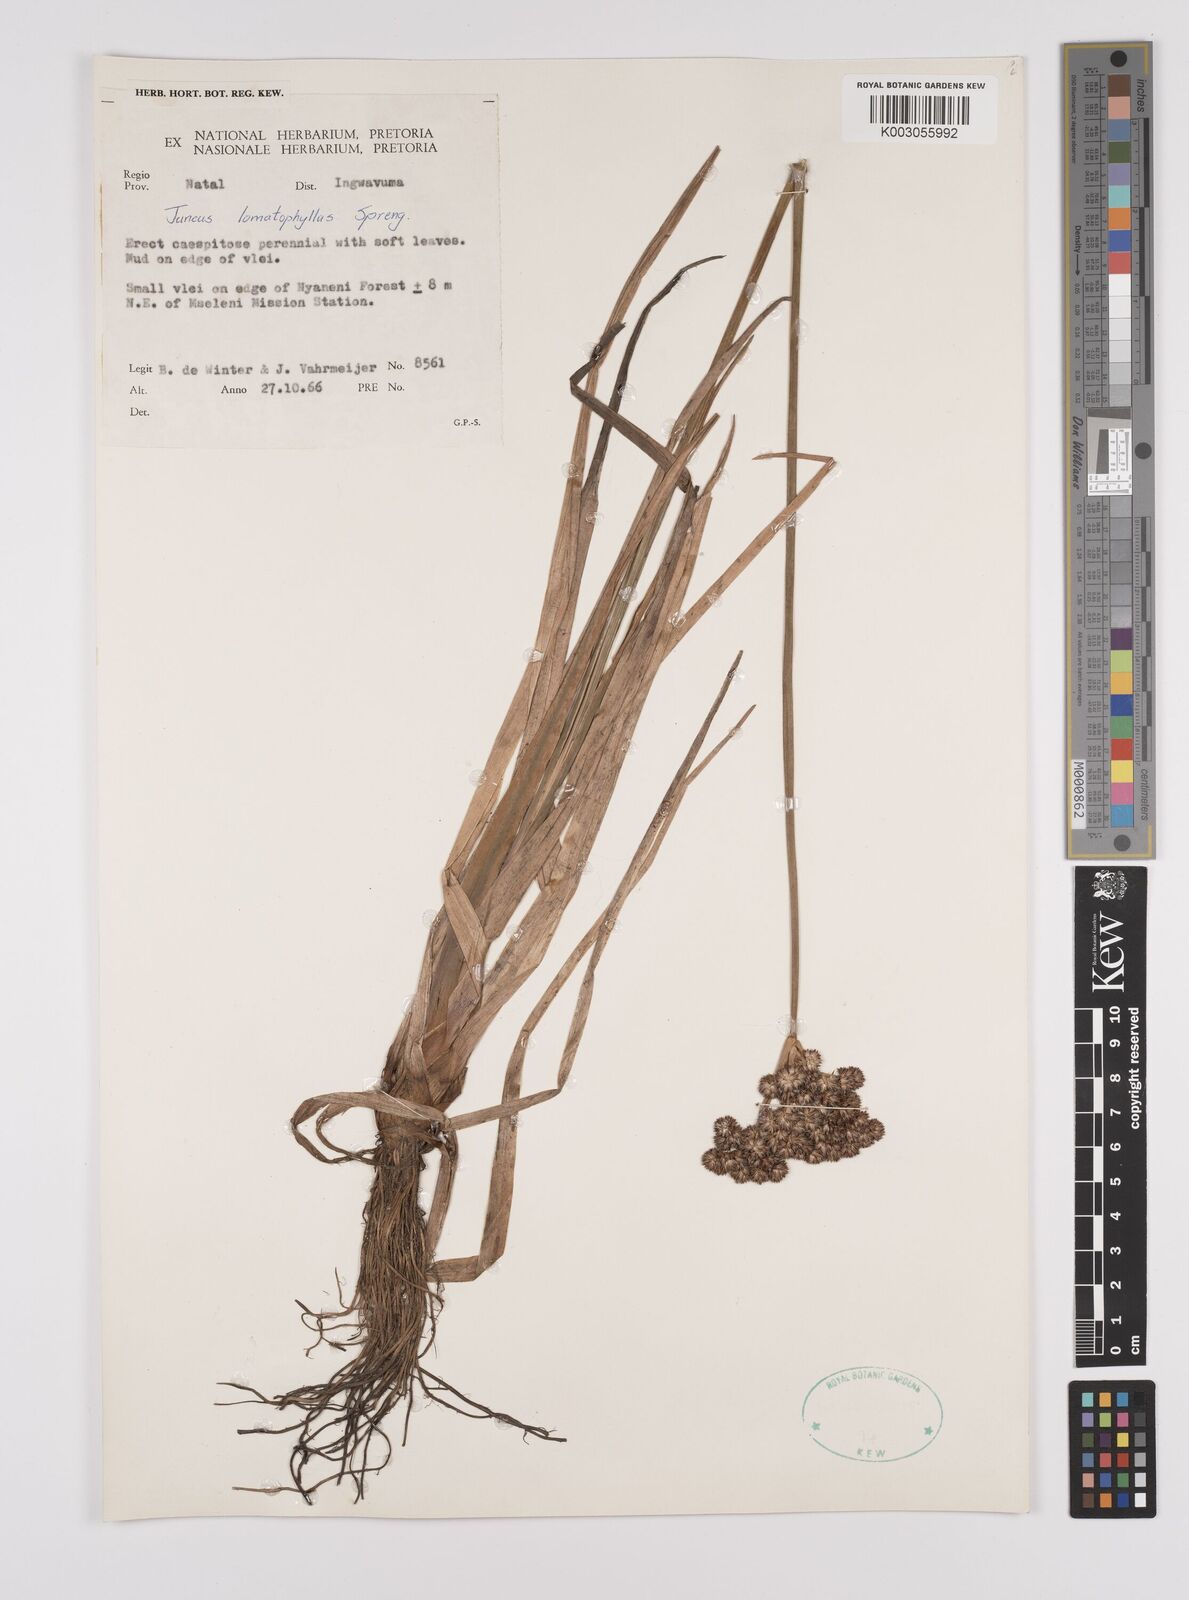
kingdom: Plantae
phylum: Tracheophyta
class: Liliopsida
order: Poales
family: Juncaceae
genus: Juncus
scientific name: Juncus lomatophyllus
